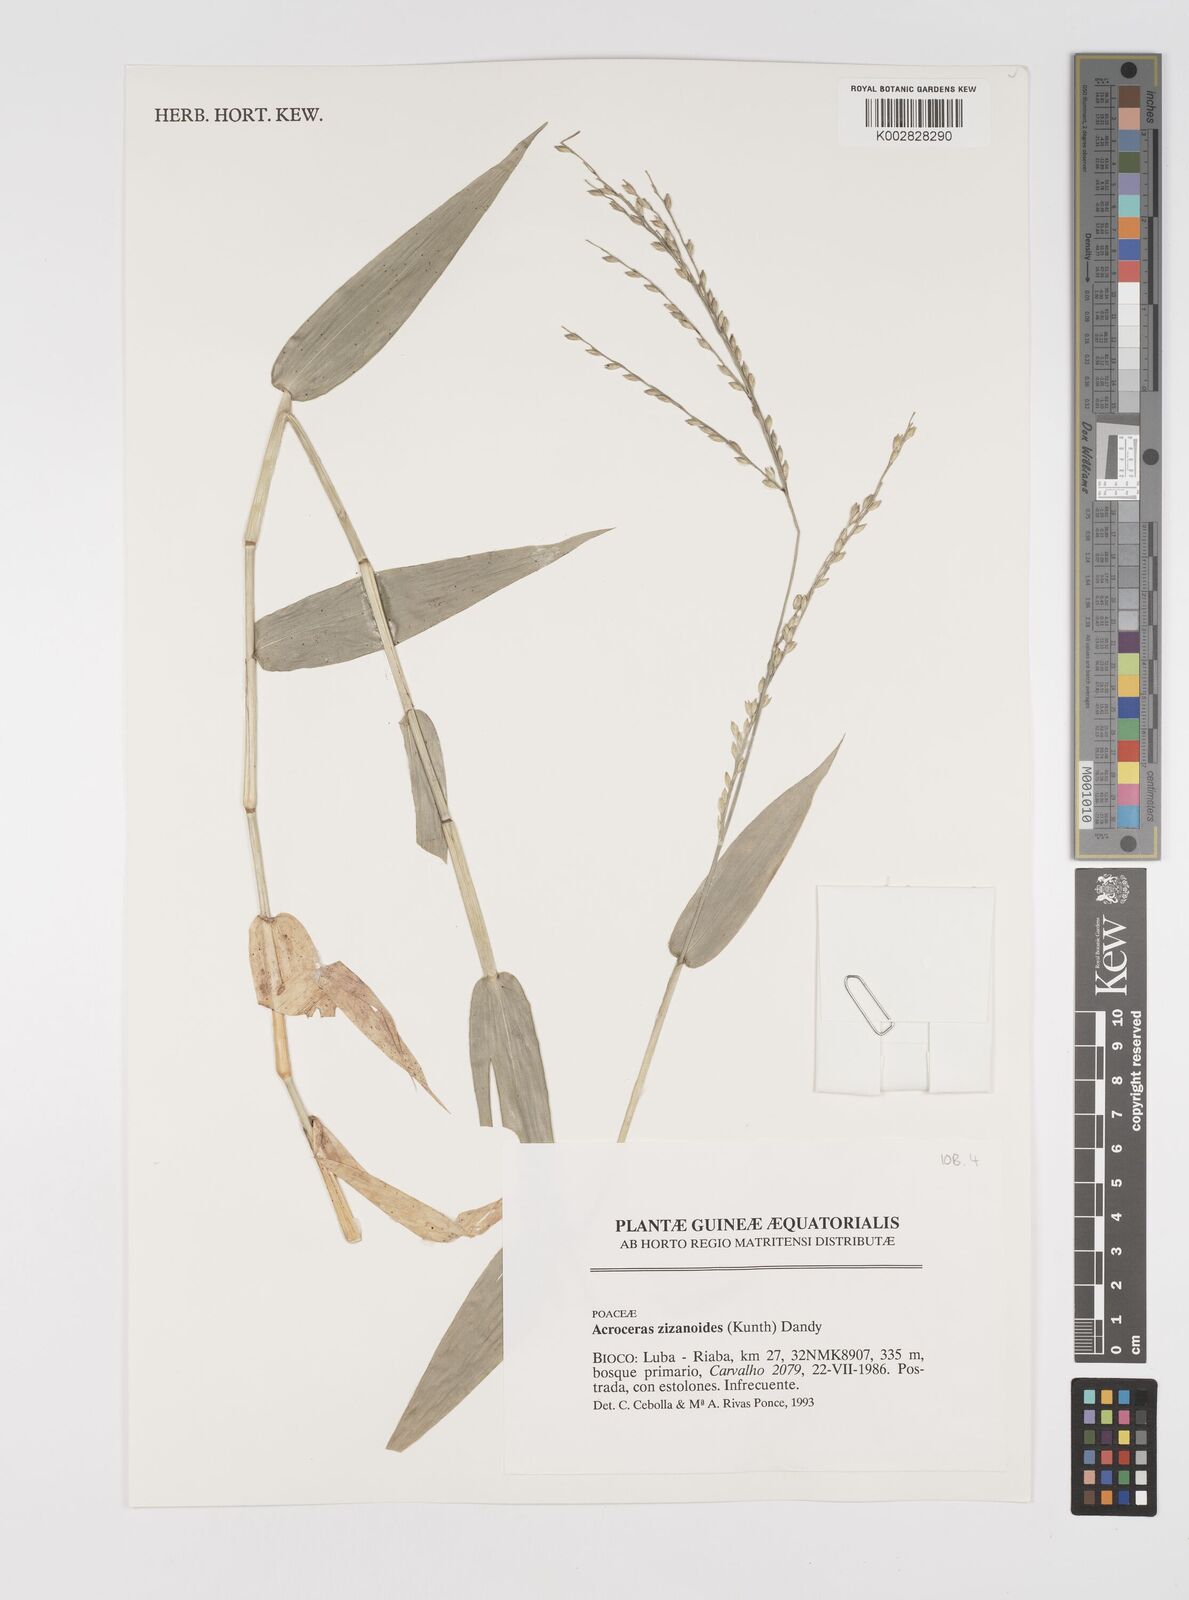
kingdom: Plantae
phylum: Tracheophyta
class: Liliopsida
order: Poales
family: Poaceae
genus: Acroceras
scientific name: Acroceras zizanioides
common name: Oat grass
